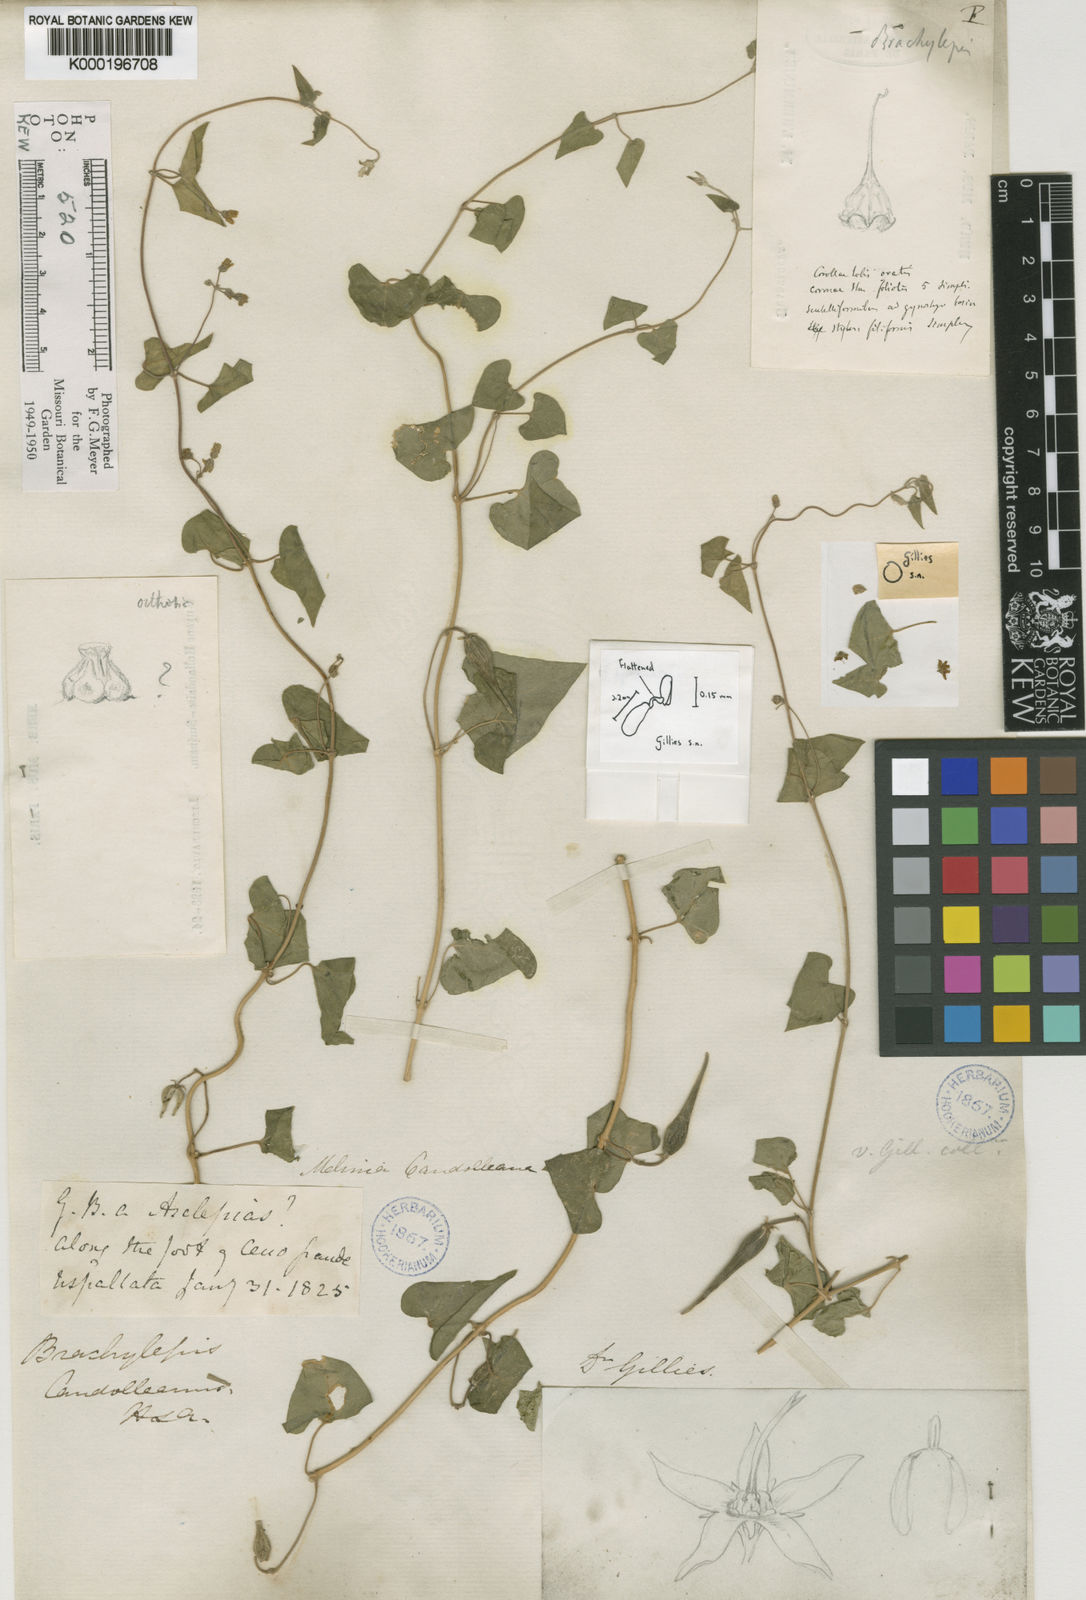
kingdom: Plantae
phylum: Tracheophyta
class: Magnoliopsida
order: Gentianales
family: Apocynaceae
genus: Philibertia
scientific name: Philibertia candolleana
